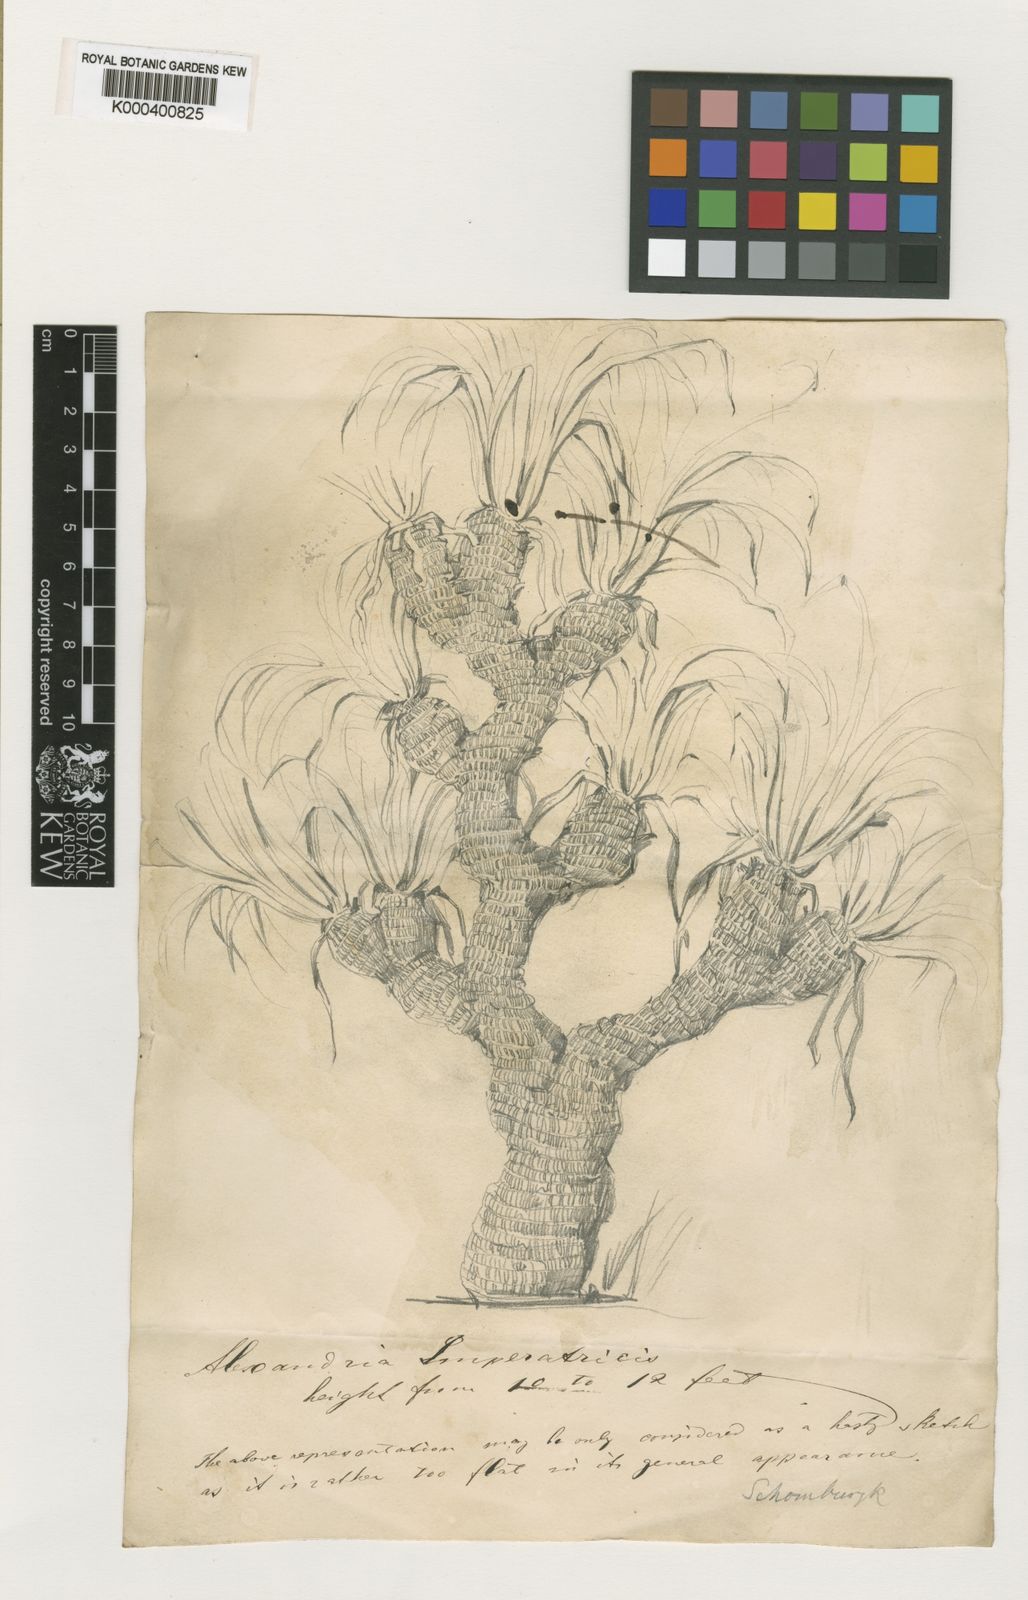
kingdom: Plantae
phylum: Tracheophyta
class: Liliopsida
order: Pandanales
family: Velloziaceae
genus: Vellozia
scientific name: Vellozia tubiflora
